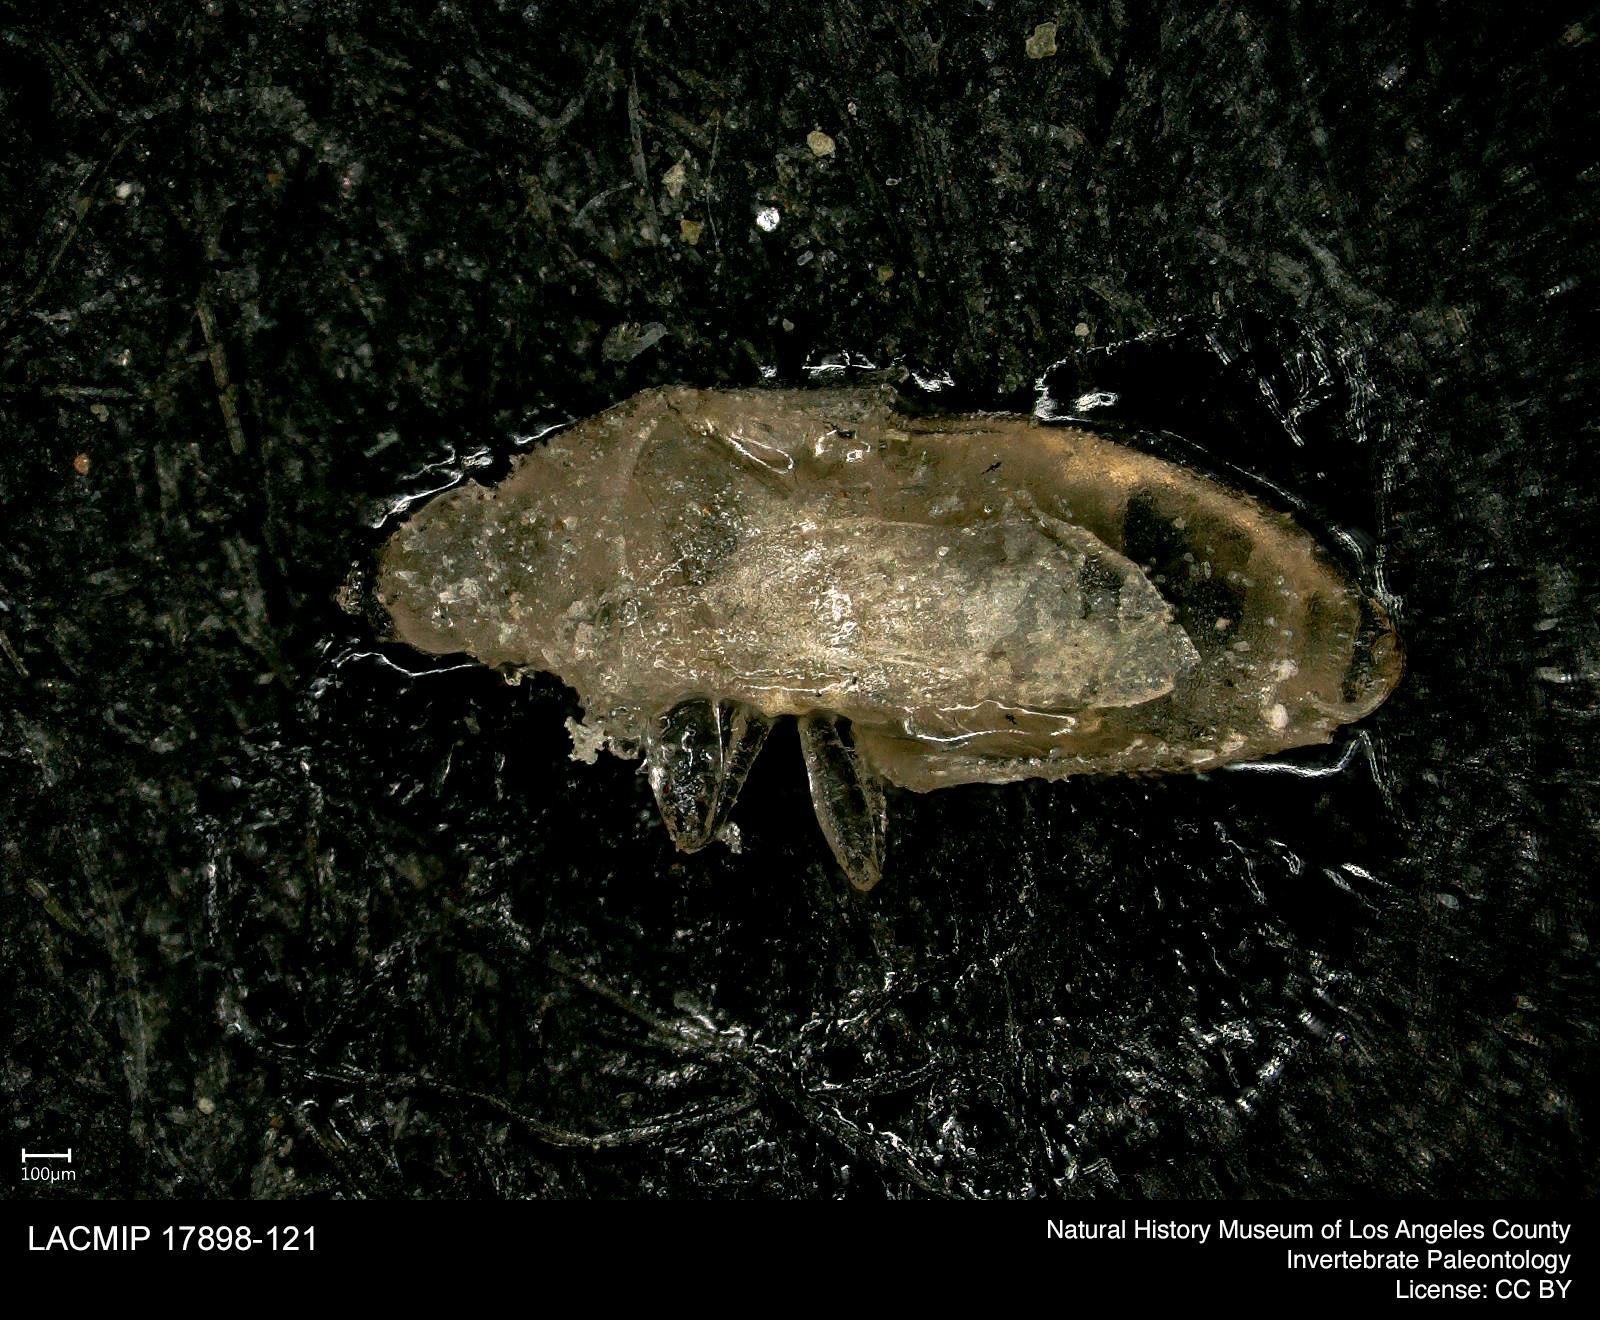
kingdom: Animalia
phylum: Arthropoda
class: Insecta
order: Hemiptera
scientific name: Hemiptera
